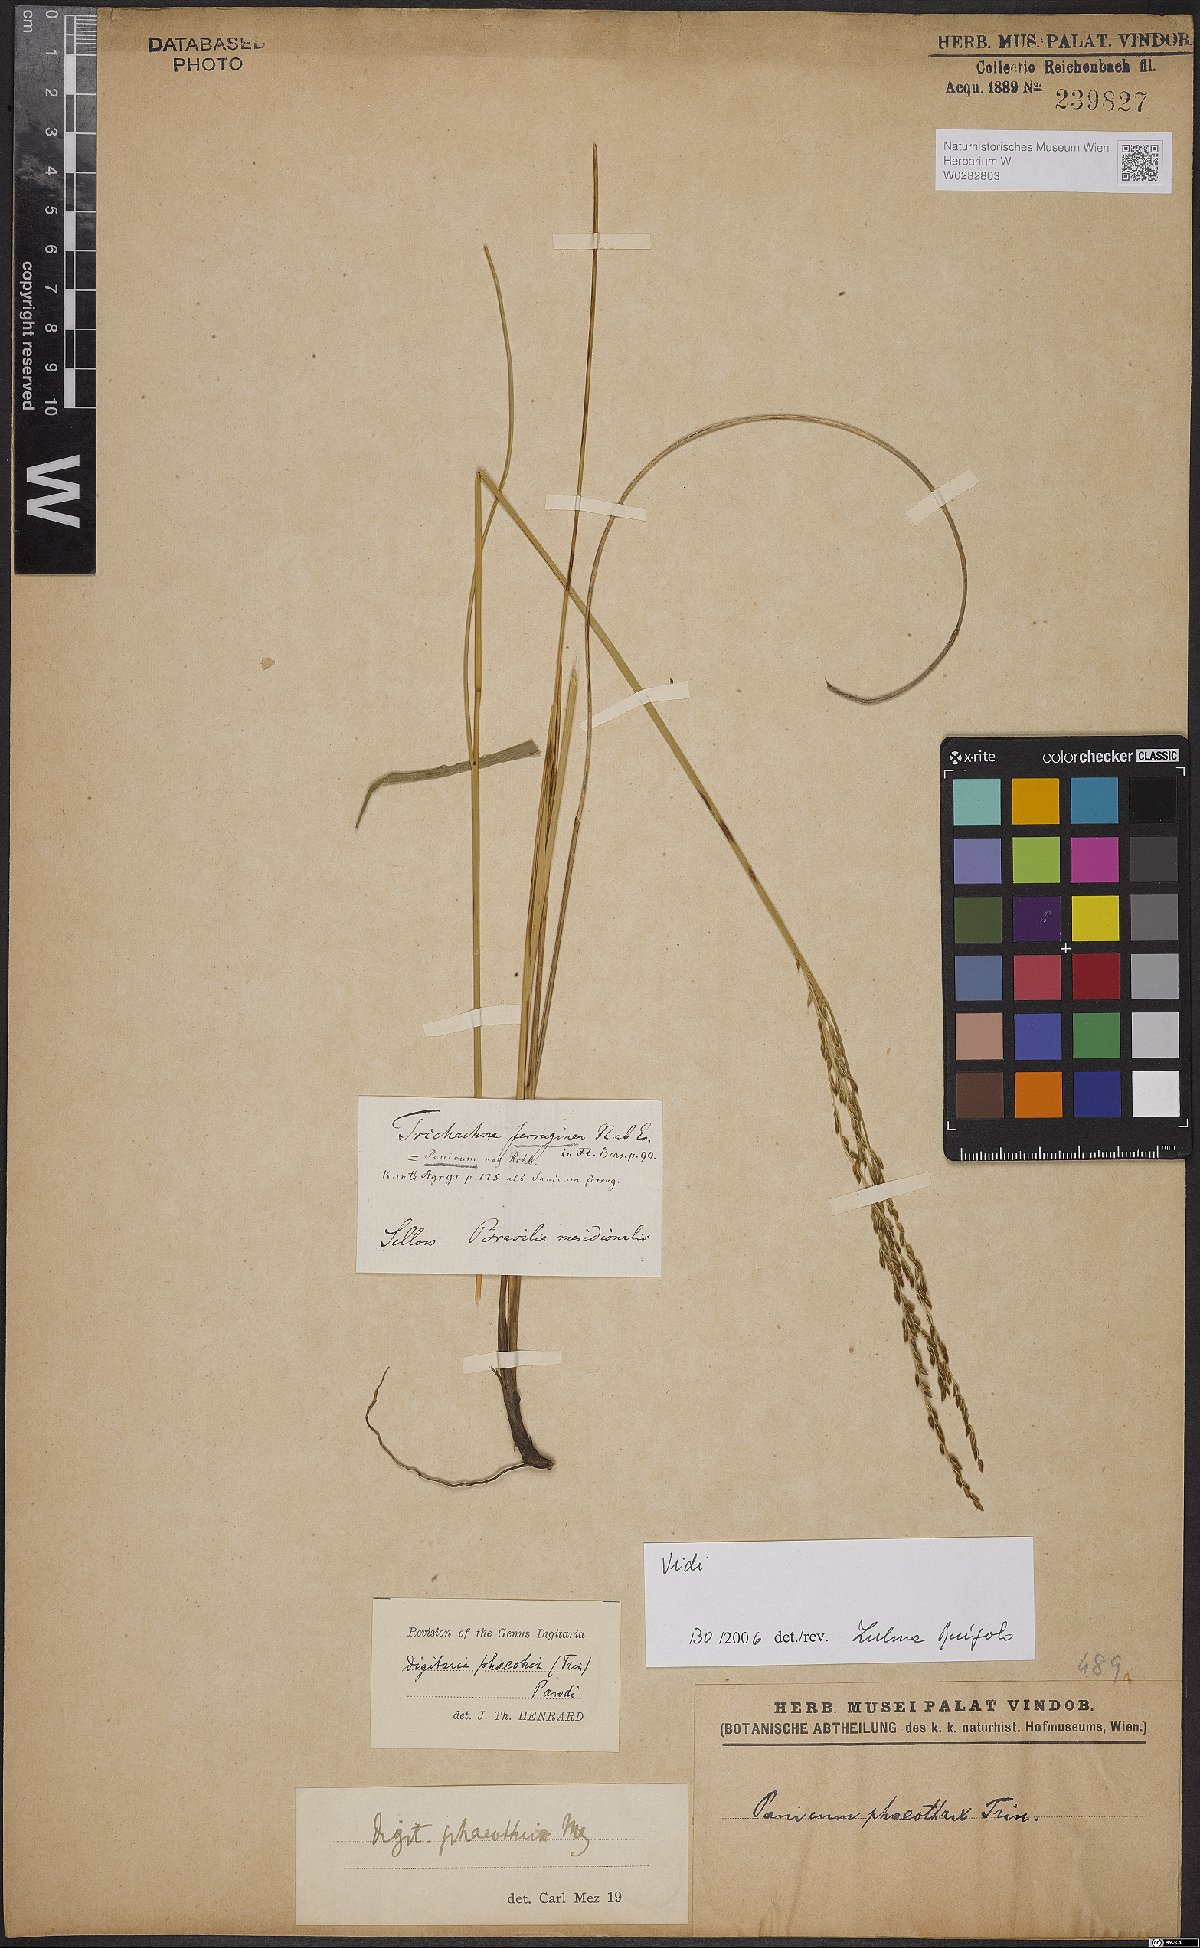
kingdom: Plantae
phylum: Tracheophyta
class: Liliopsida
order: Poales
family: Poaceae
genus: Digitaria
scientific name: Digitaria phaeothrix
